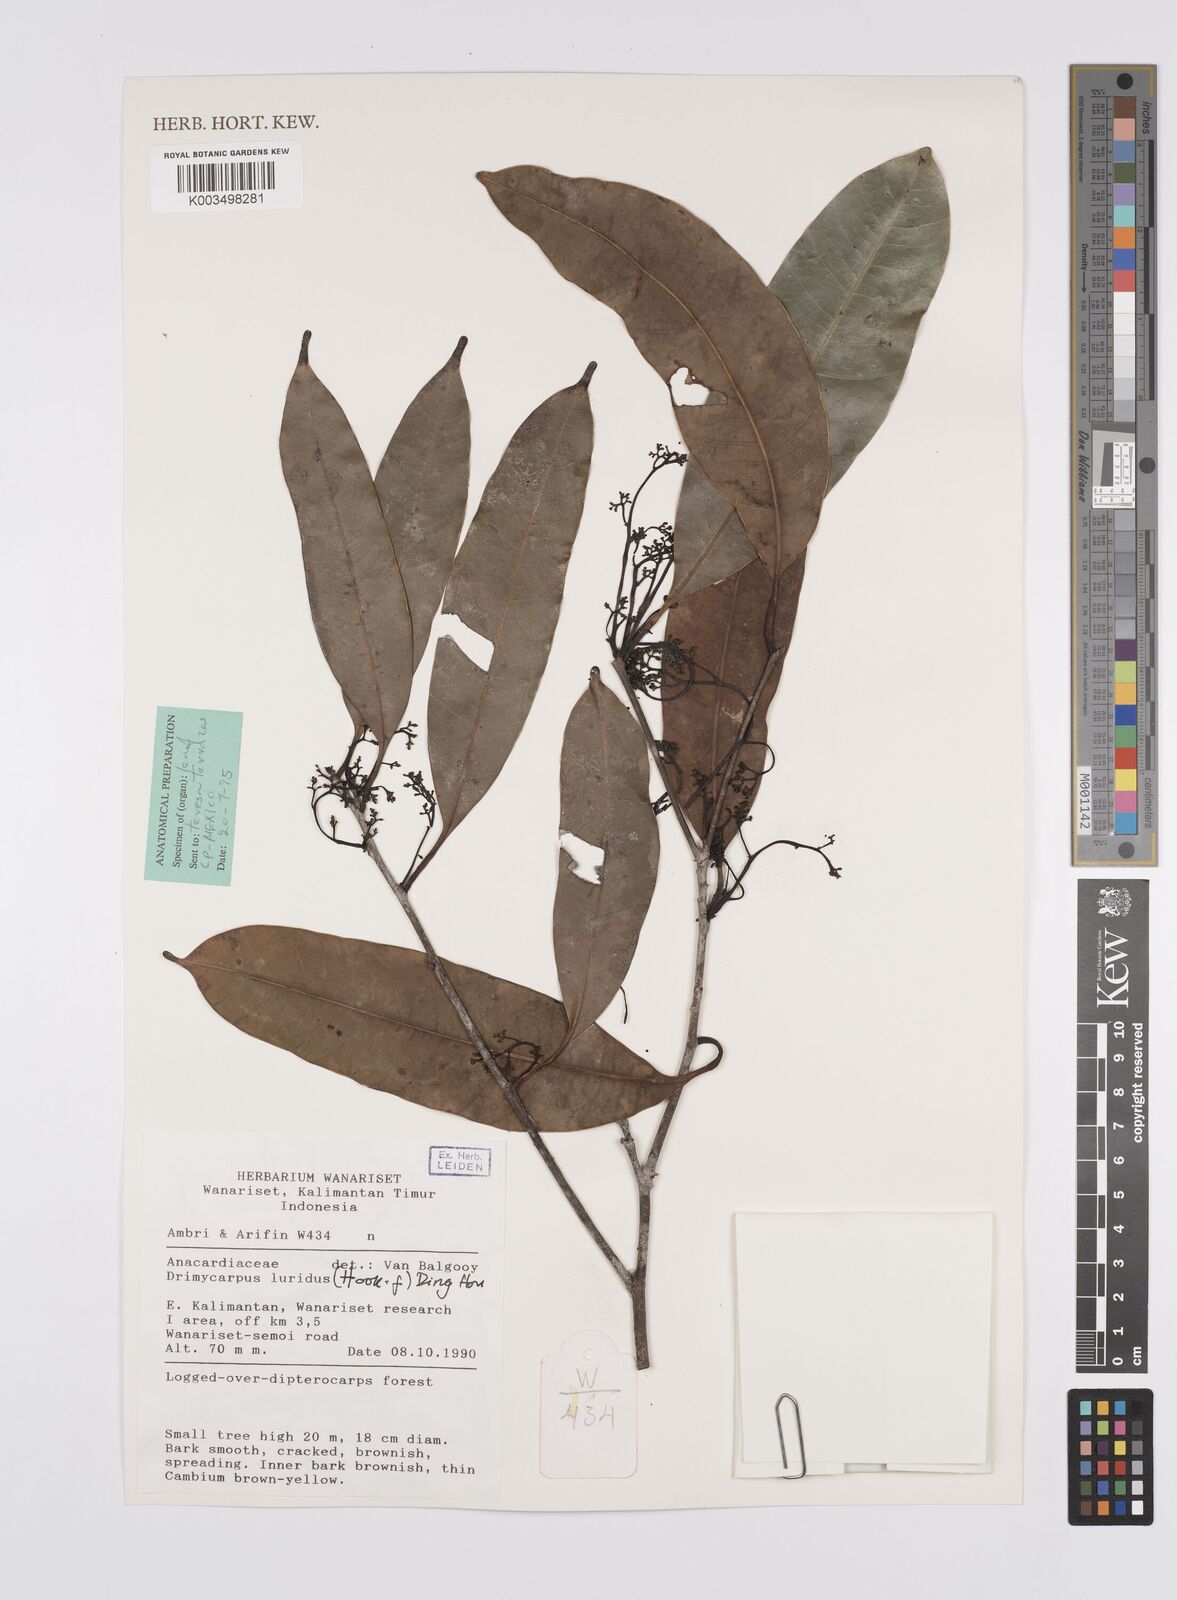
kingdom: Plantae
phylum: Tracheophyta
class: Magnoliopsida
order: Sapindales
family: Anacardiaceae
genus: Drimycarpus
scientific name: Drimycarpus luridus
